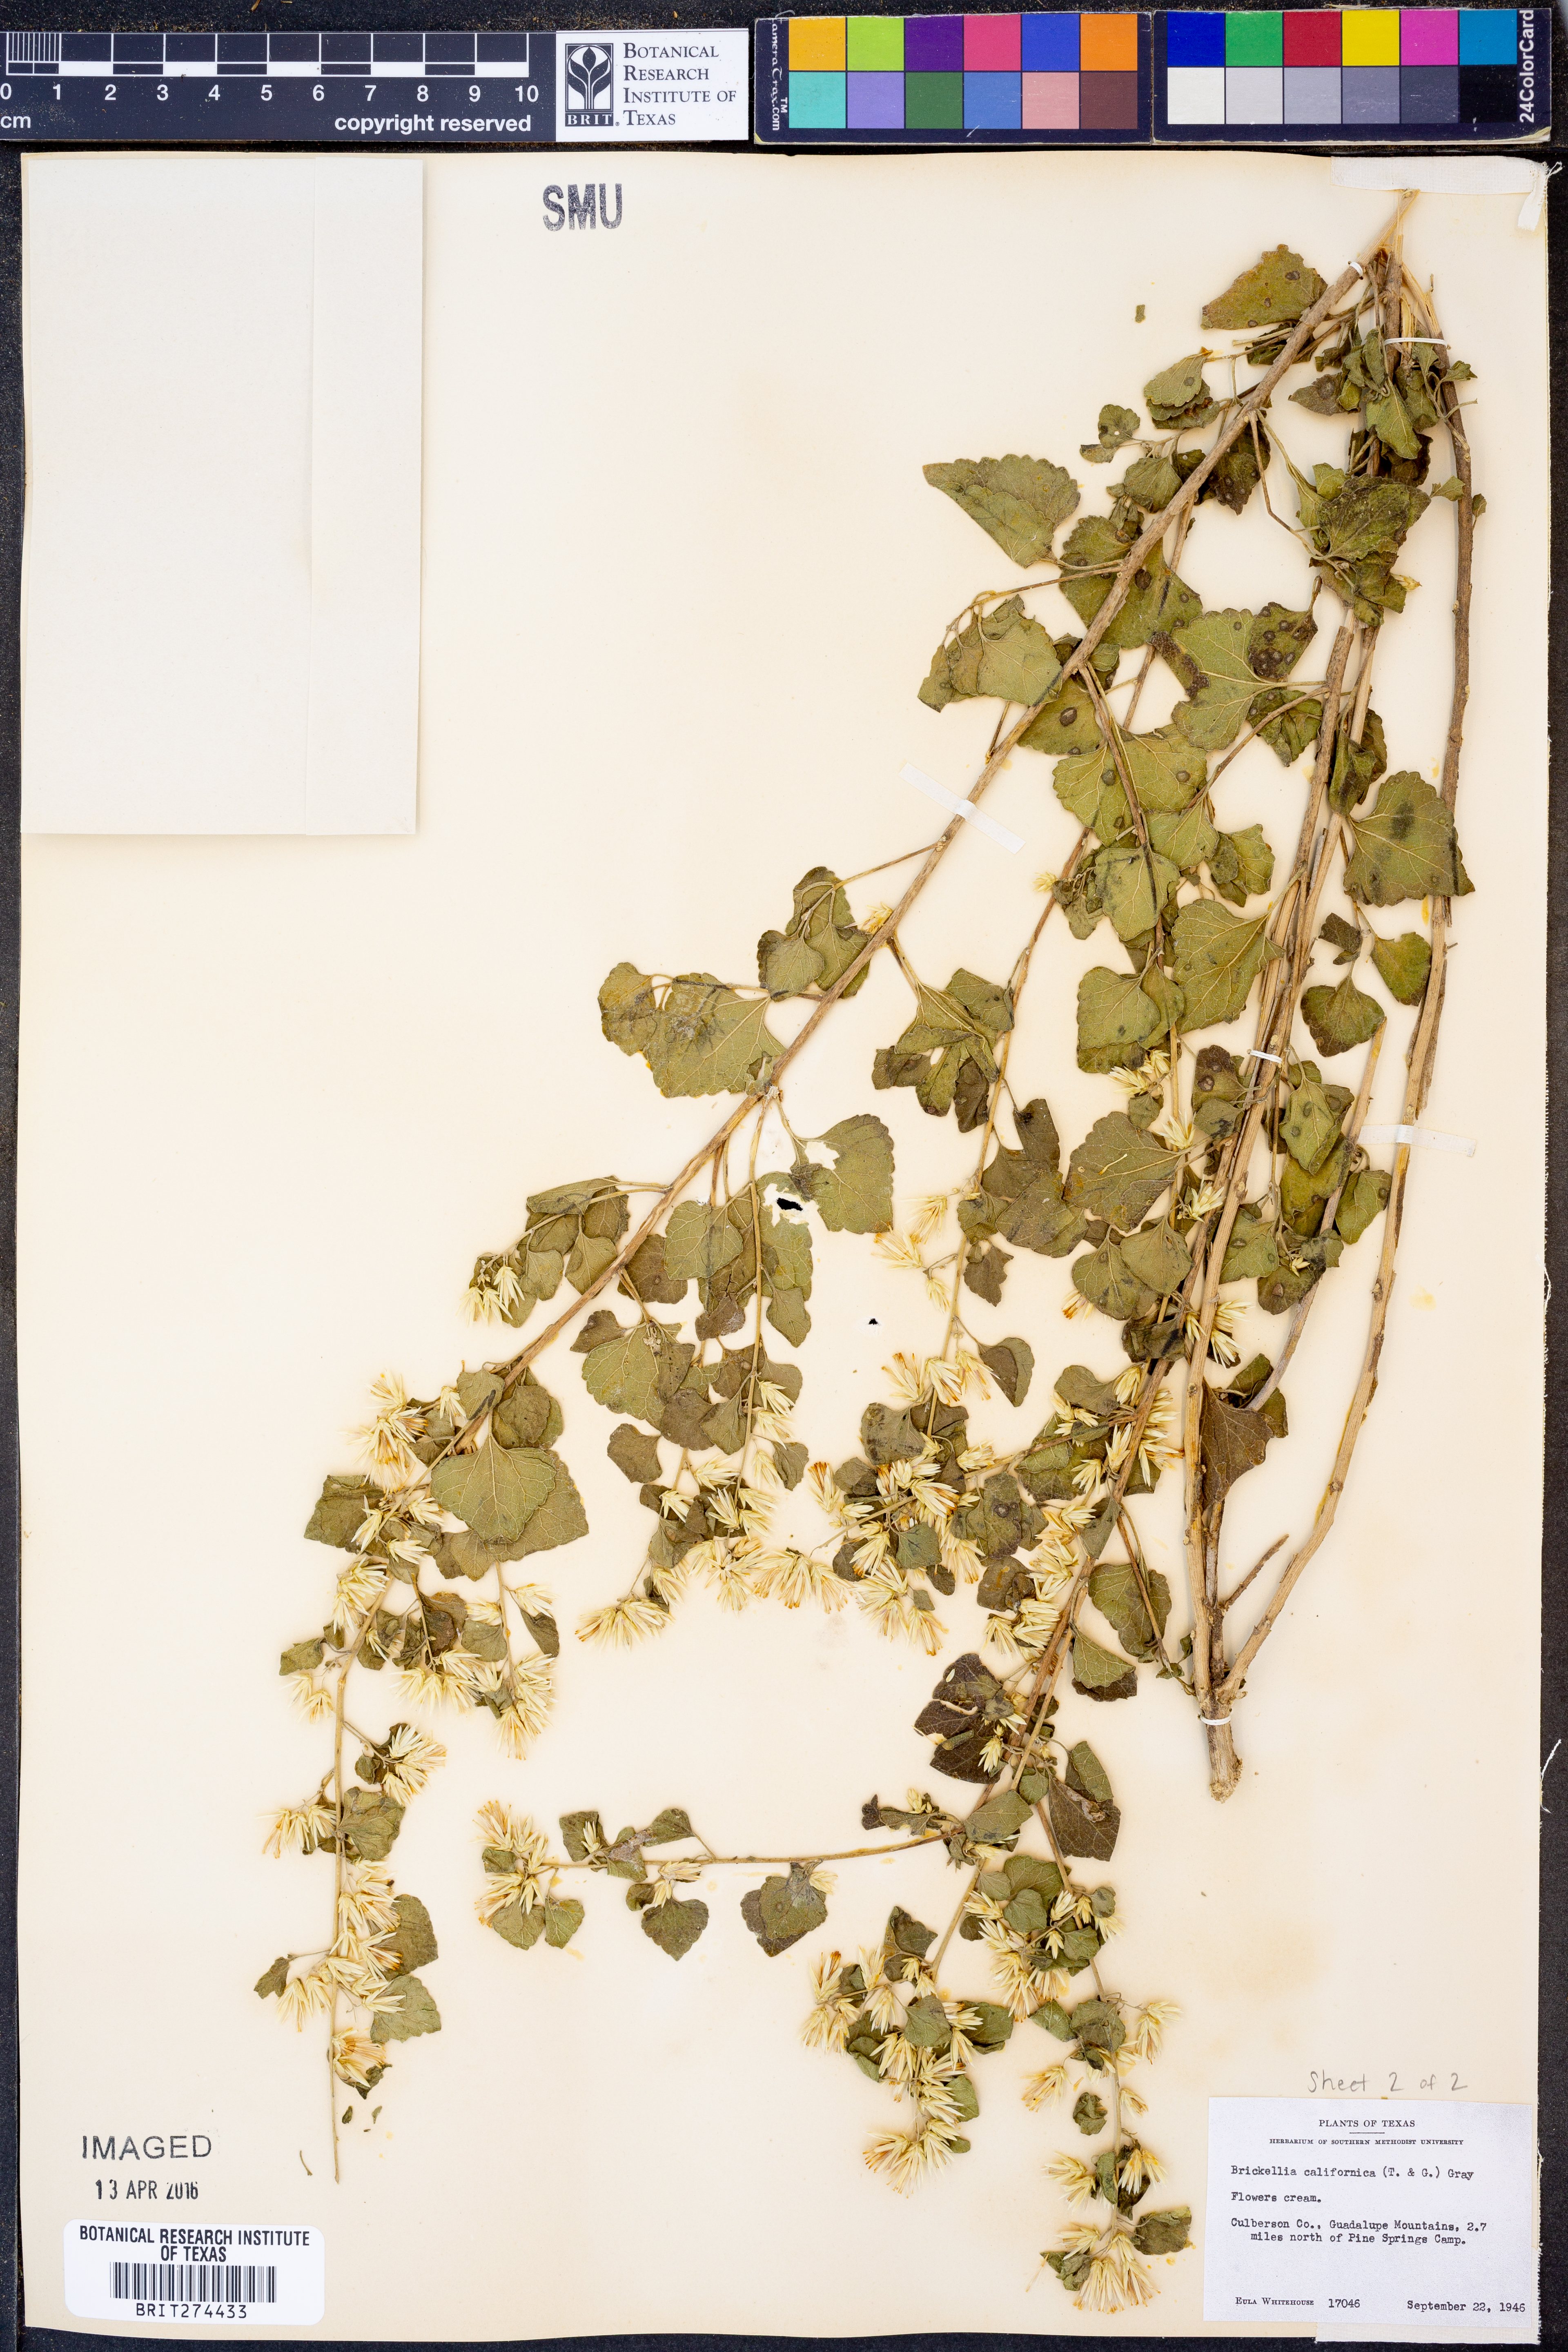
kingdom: Plantae
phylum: Tracheophyta
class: Magnoliopsida
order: Asterales
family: Asteraceae
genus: Brickellia
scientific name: Brickellia californica
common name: California brickellbush
